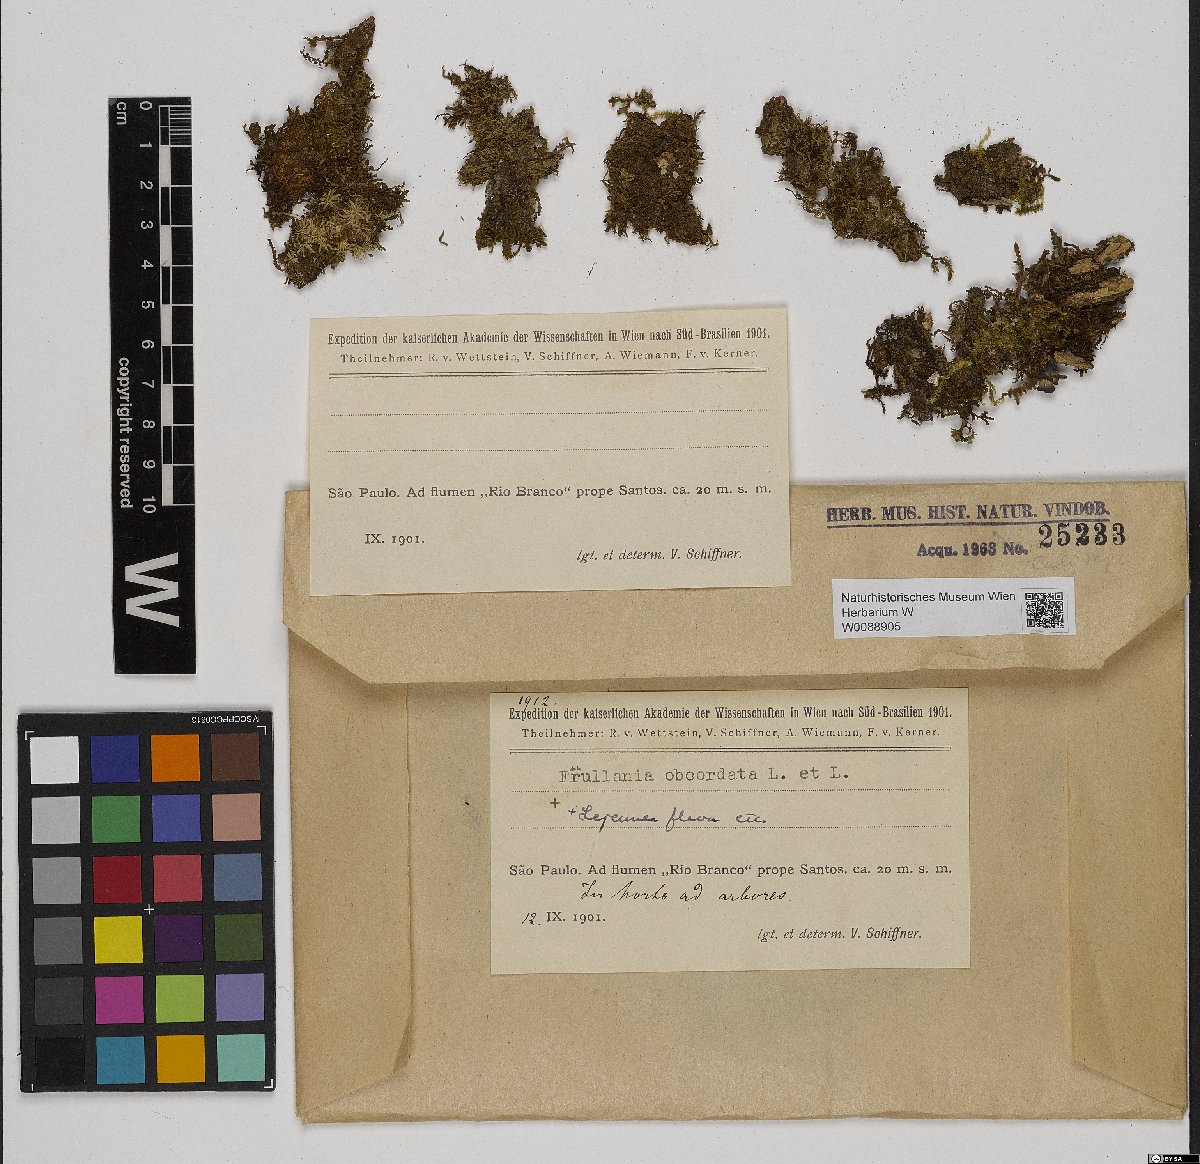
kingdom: Plantae
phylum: Marchantiophyta
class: Jungermanniopsida
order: Porellales
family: Frullaniaceae
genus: Frullania
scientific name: Frullania obcordata
